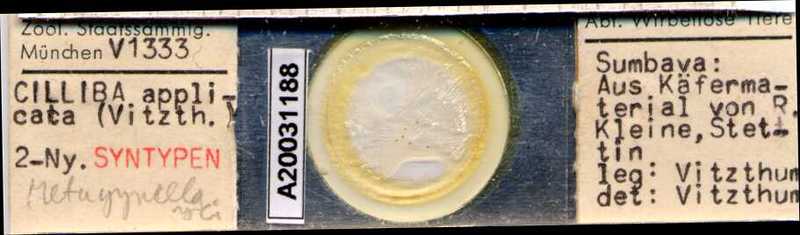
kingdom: Animalia
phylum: Arthropoda
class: Arachnida
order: Mesostigmata
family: Uropodidae
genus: Cilliba
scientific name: Cilliba
